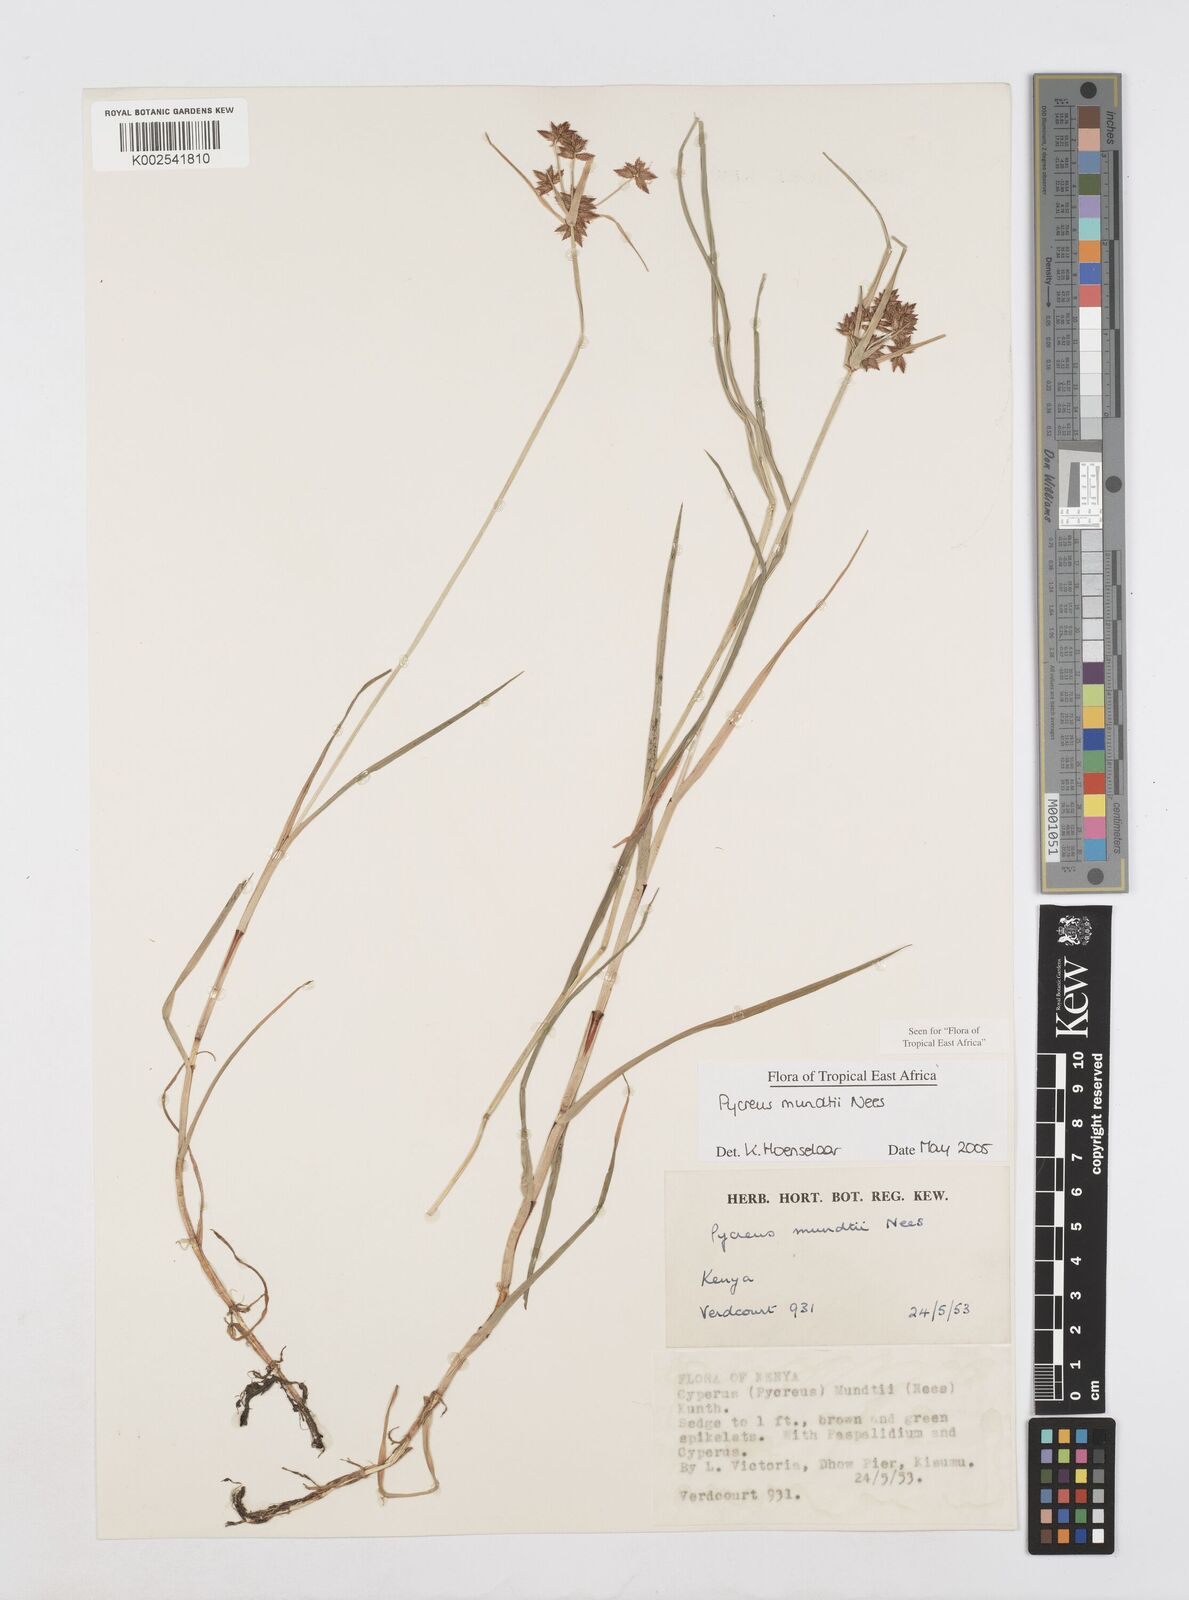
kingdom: Plantae
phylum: Tracheophyta
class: Liliopsida
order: Poales
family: Cyperaceae
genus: Cyperus
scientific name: Cyperus mundii
